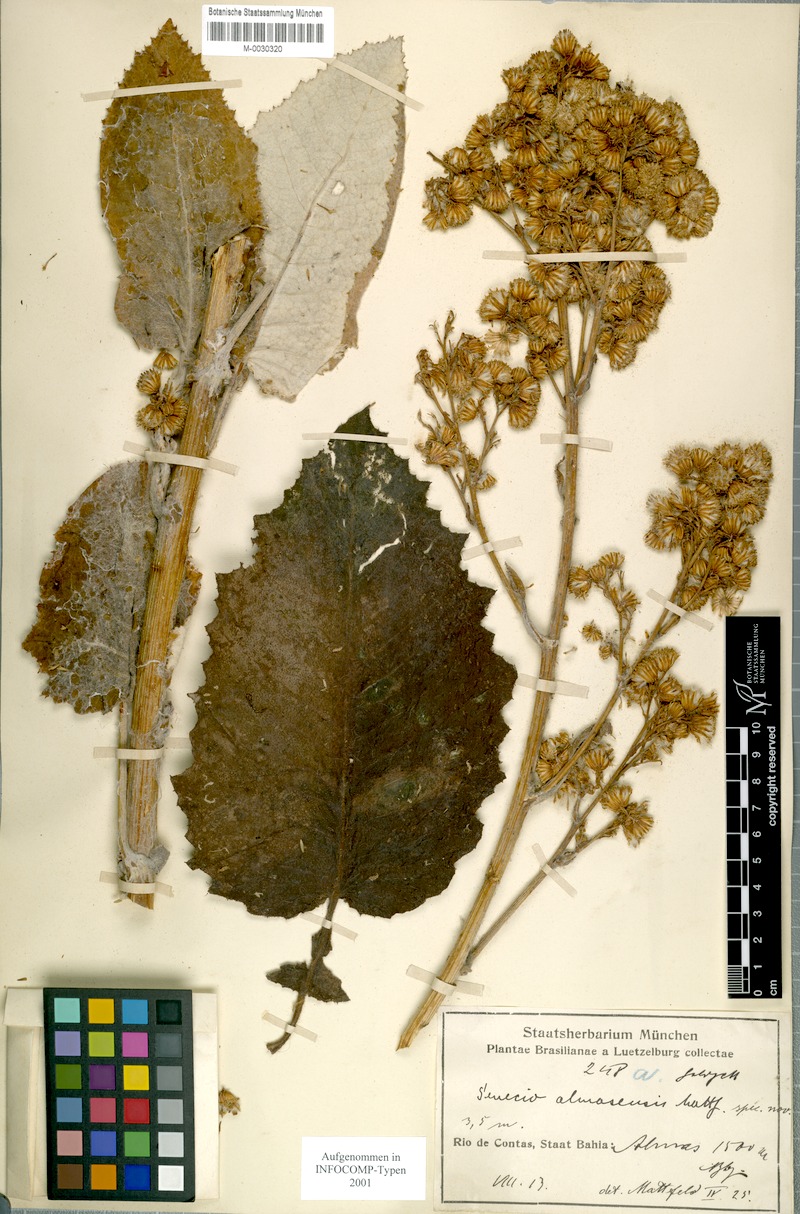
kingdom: Plantae
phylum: Tracheophyta
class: Magnoliopsida
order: Asterales
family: Asteraceae
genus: Senecio
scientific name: Senecio almasensis
